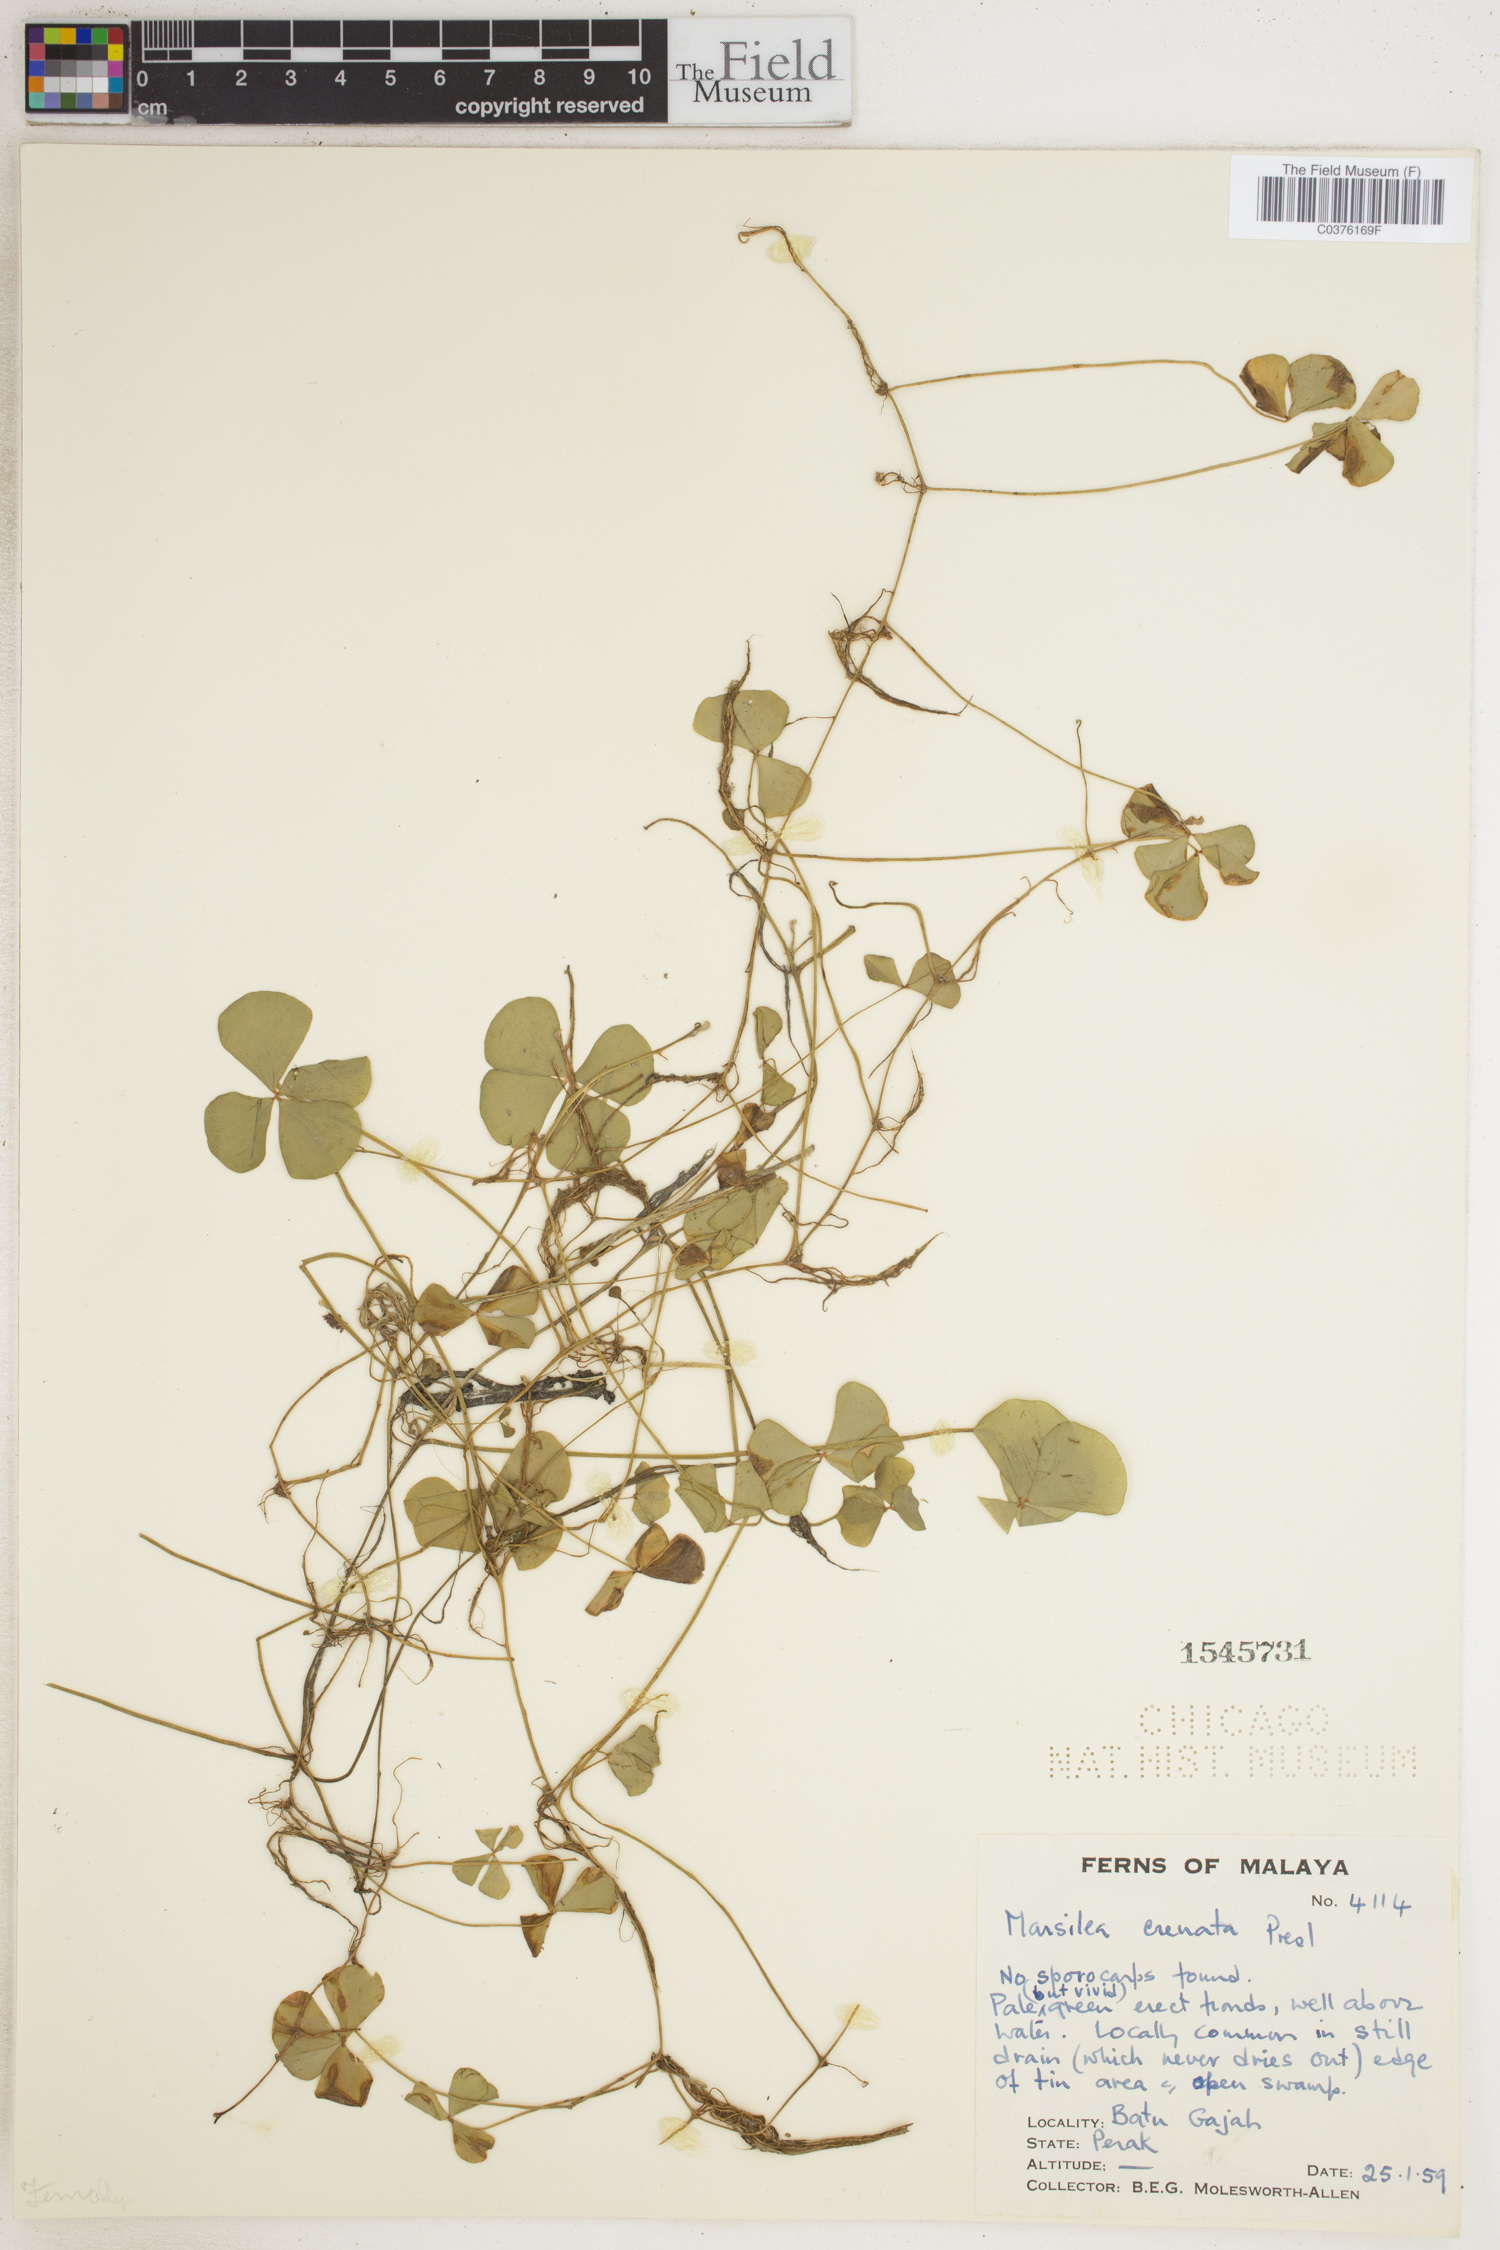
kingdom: Plantae
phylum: Tracheophyta
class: Polypodiopsida
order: Salviniales
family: Marsileaceae
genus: Marsilea
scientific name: Marsilea crenata
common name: False pepperwort
